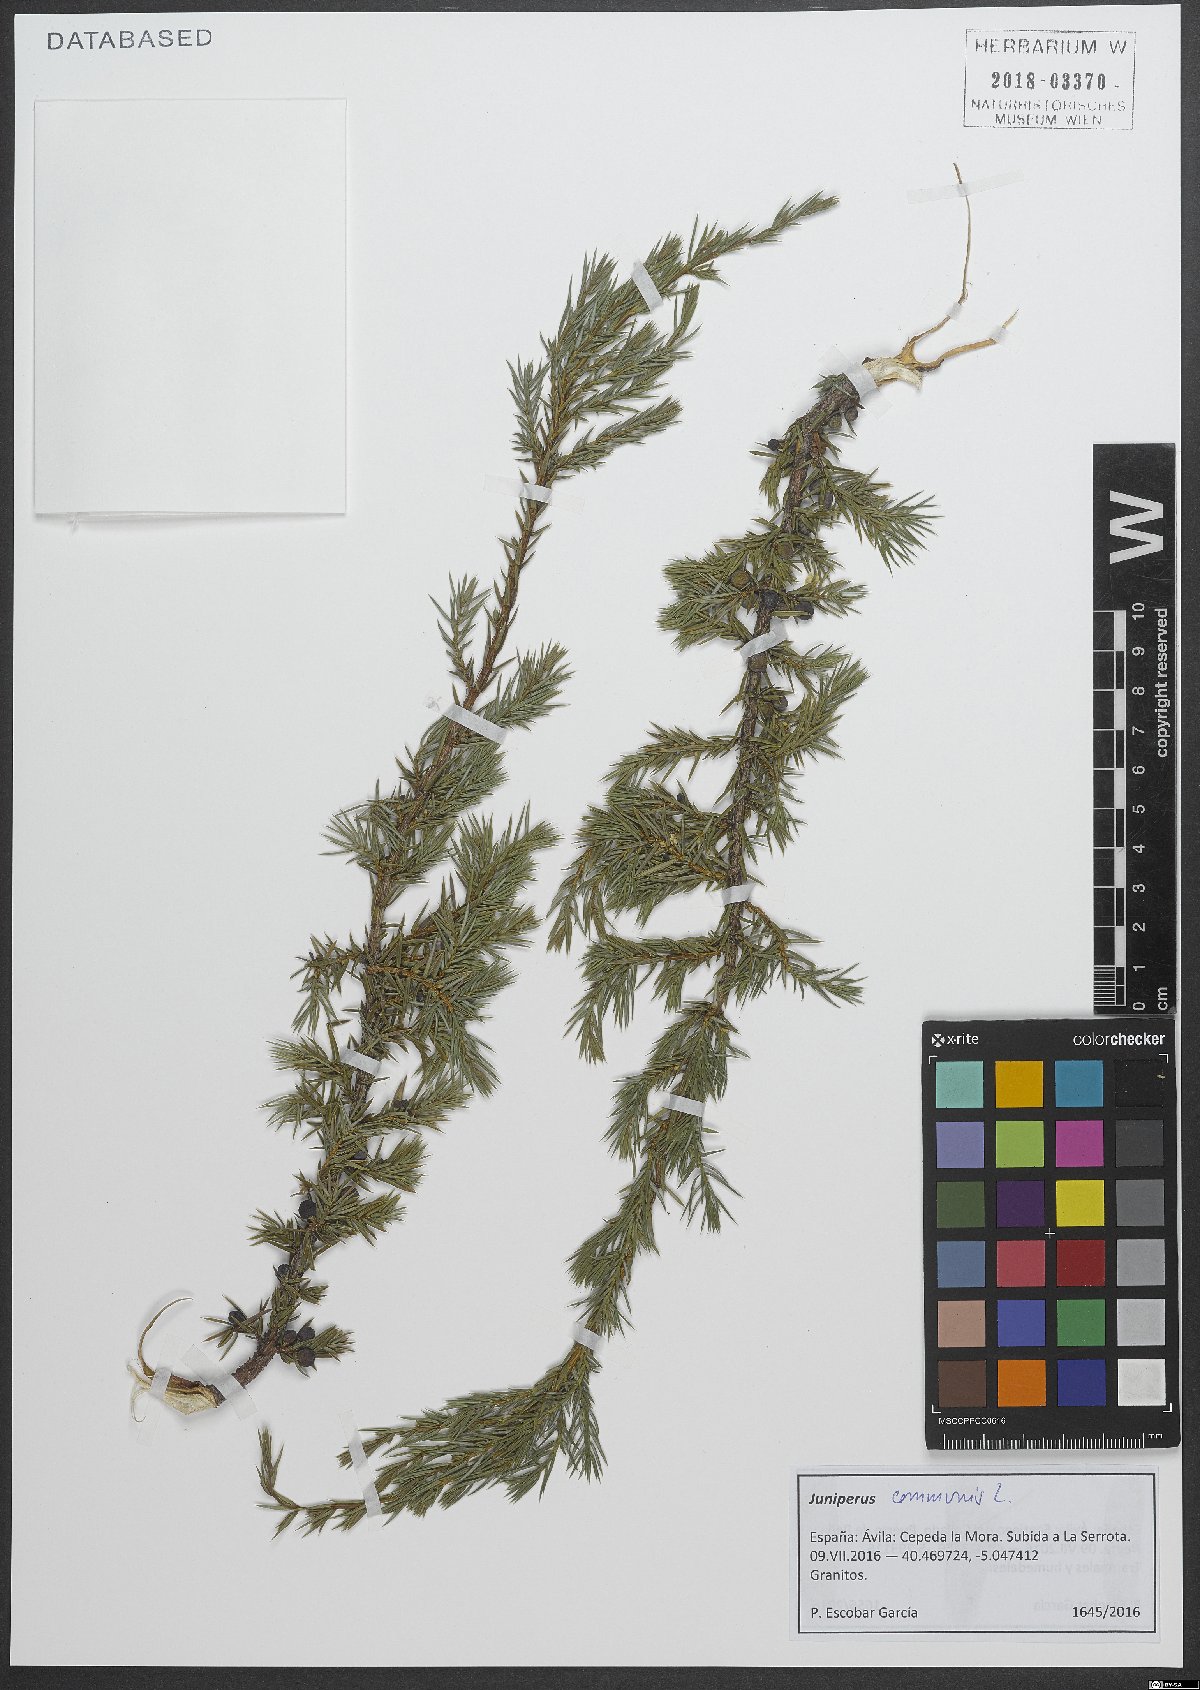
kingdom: Plantae
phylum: Tracheophyta
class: Pinopsida
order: Pinales
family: Cupressaceae
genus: Juniperus
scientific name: Juniperus communis
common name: Common juniper
